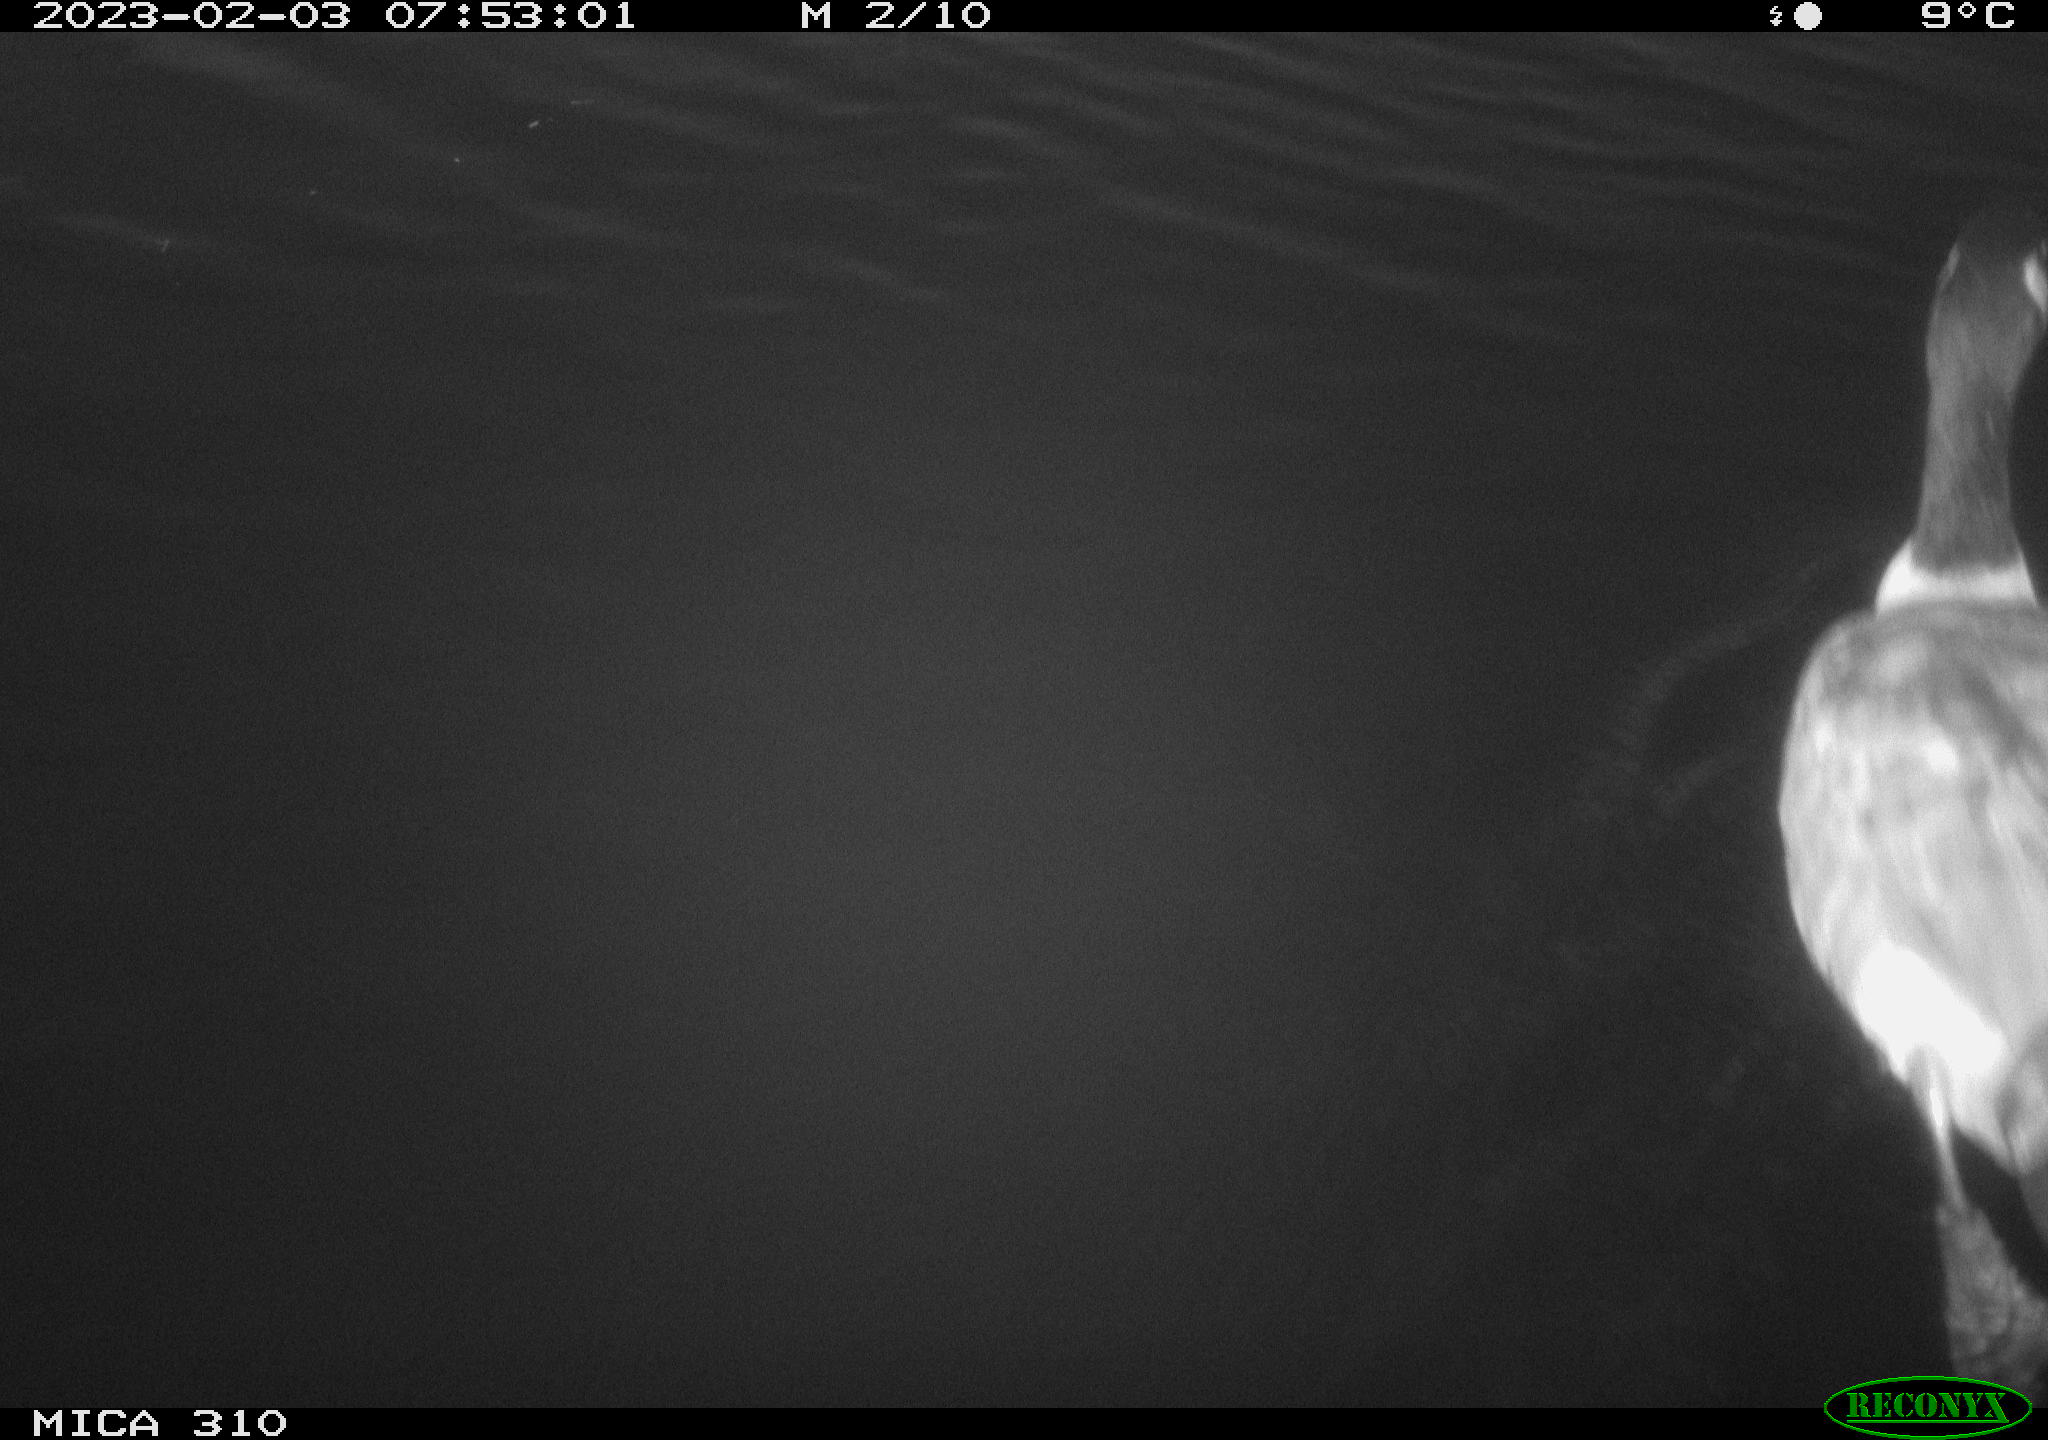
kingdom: Animalia
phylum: Chordata
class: Aves
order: Anseriformes
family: Anatidae
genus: Anas
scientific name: Anas
